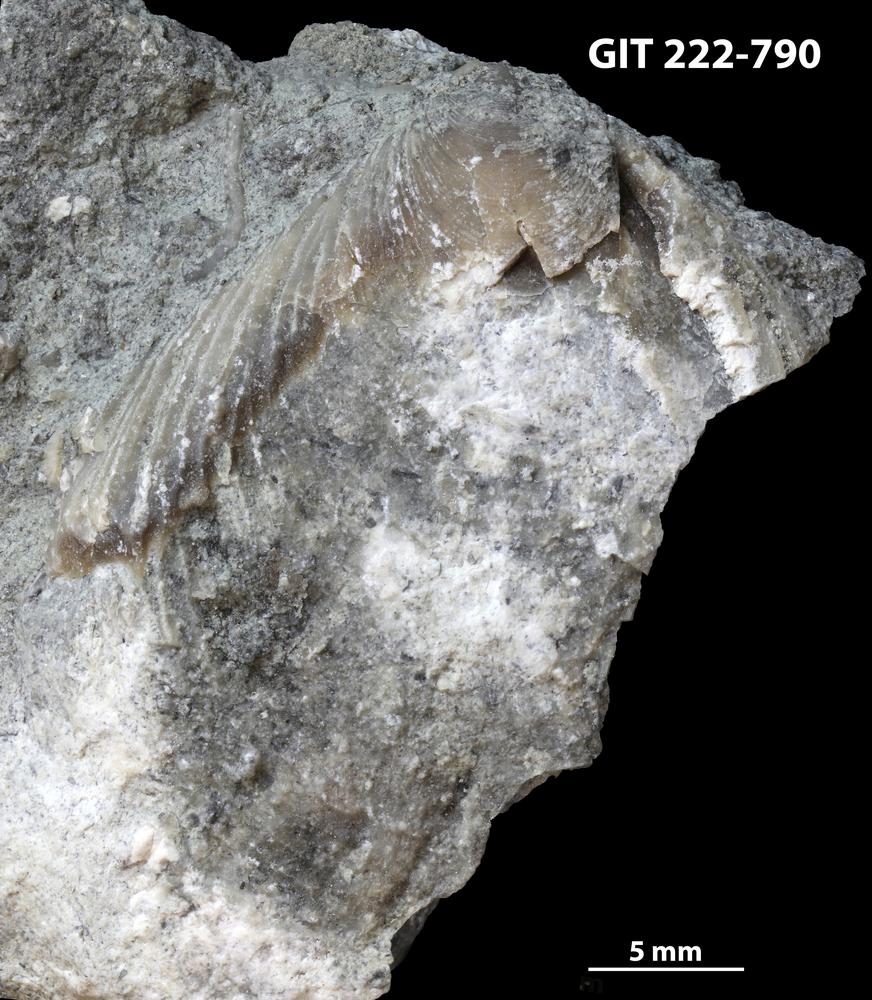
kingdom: Animalia
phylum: Mollusca
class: Monoplacophora
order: Tryblidiida
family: Tryblidiidae
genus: Pilina
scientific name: Pilina
